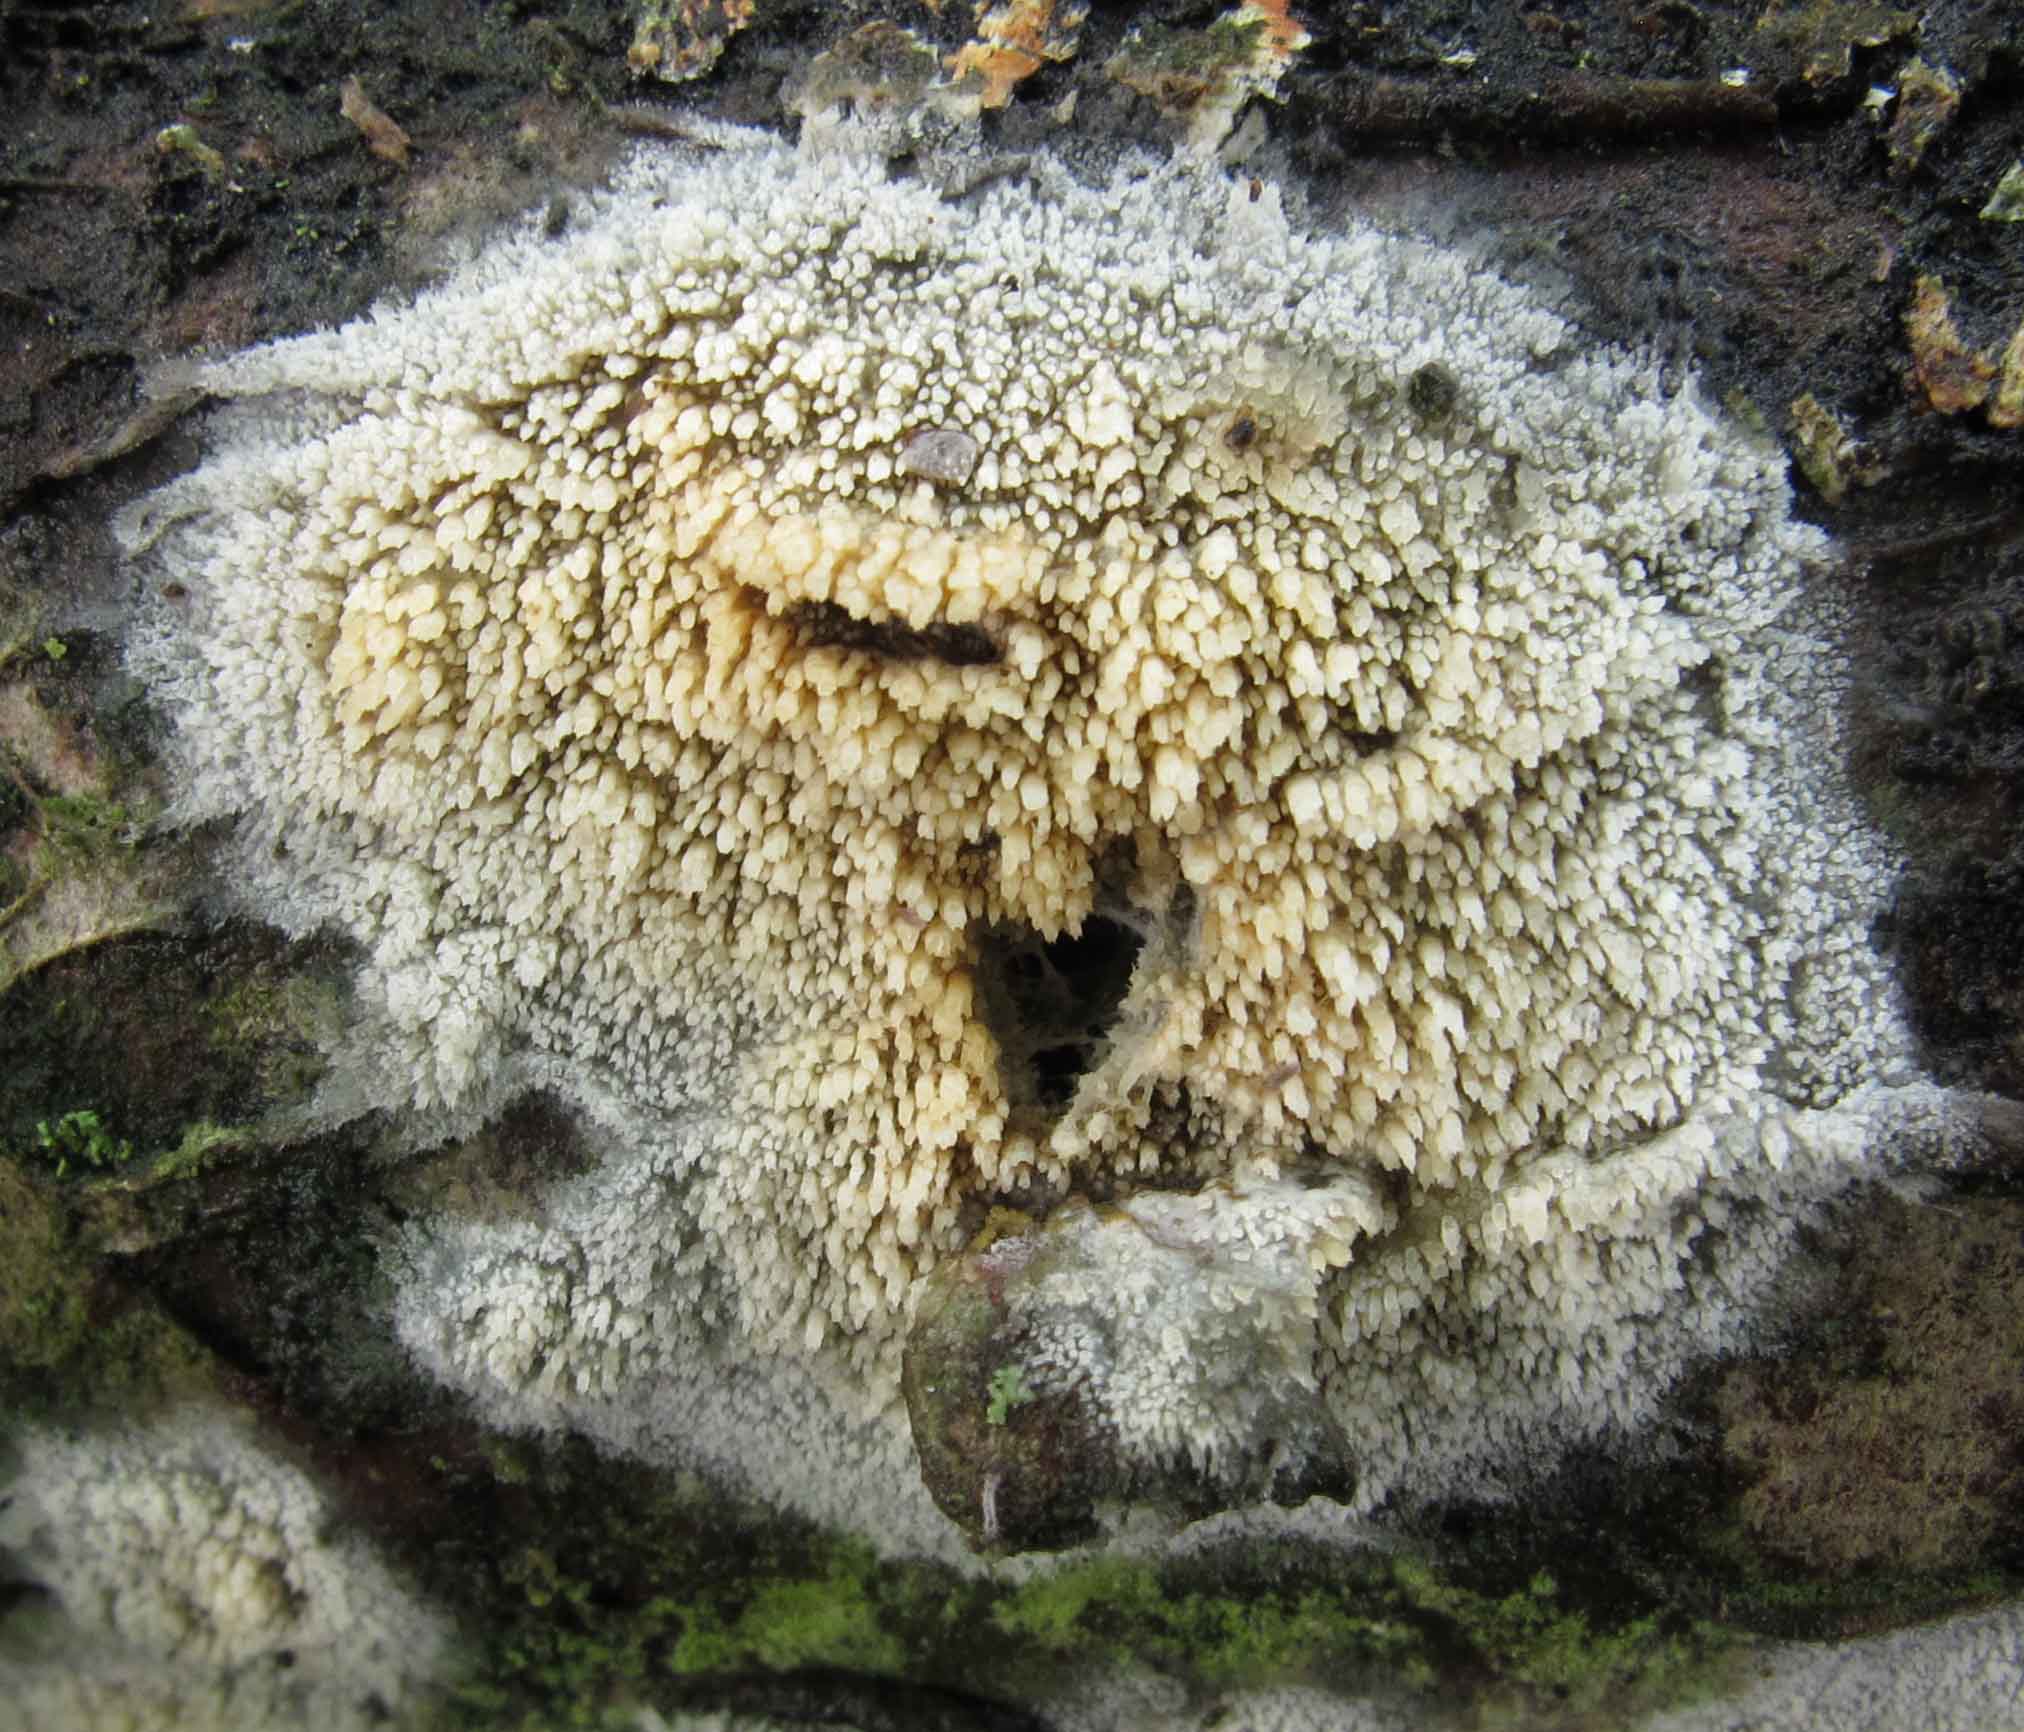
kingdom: Fungi
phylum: Basidiomycota
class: Agaricomycetes
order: Hymenochaetales
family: Hyphodontiaceae
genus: Hyphodontia
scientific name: Hyphodontia barba-jovis
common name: skægget tandsvamp
